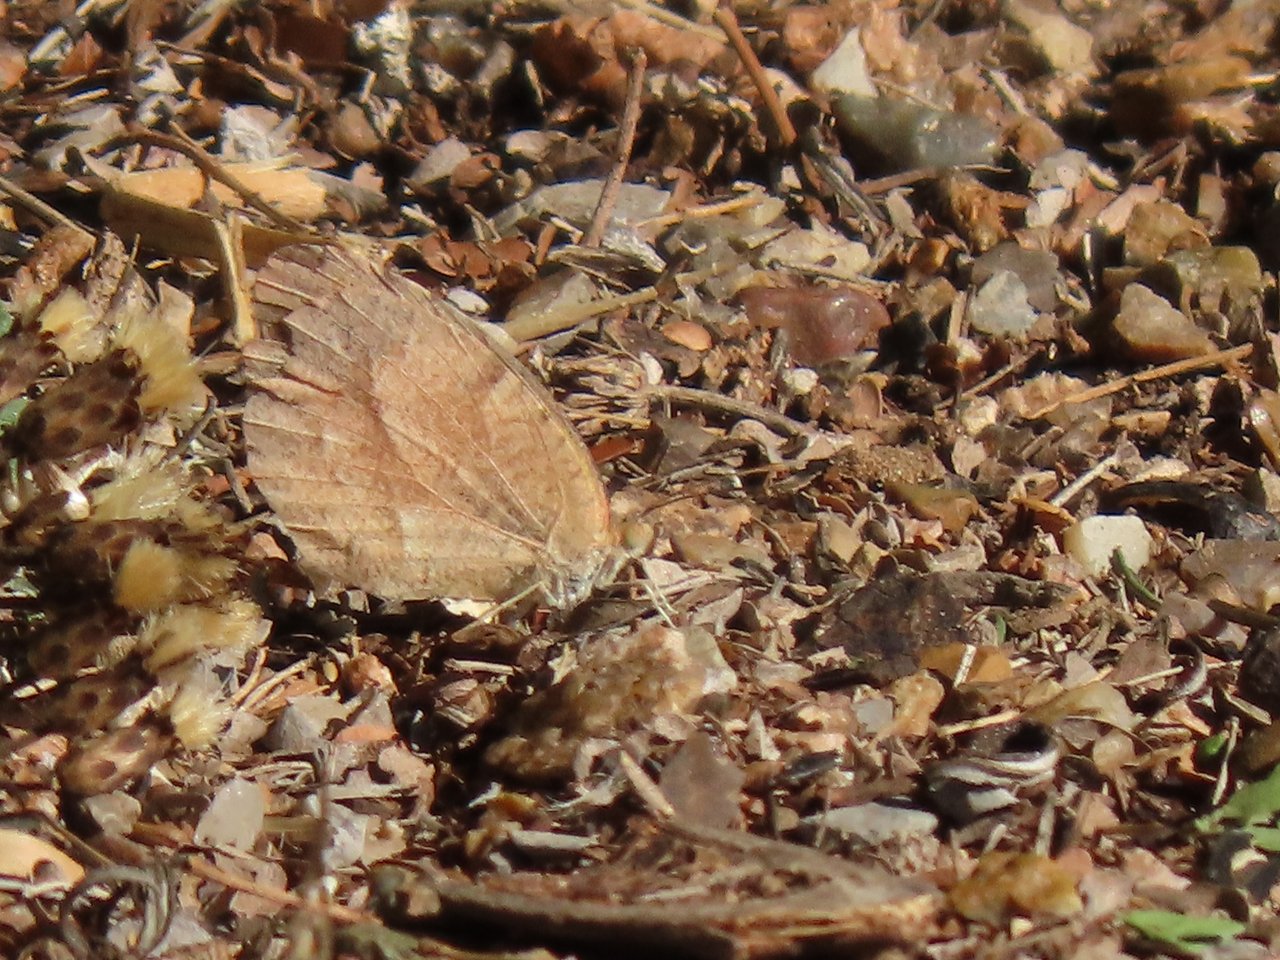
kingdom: Animalia
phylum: Arthropoda
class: Insecta
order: Lepidoptera
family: Pieridae
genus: Abaeis
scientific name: Abaeis nicippe
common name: Sleepy Orange
